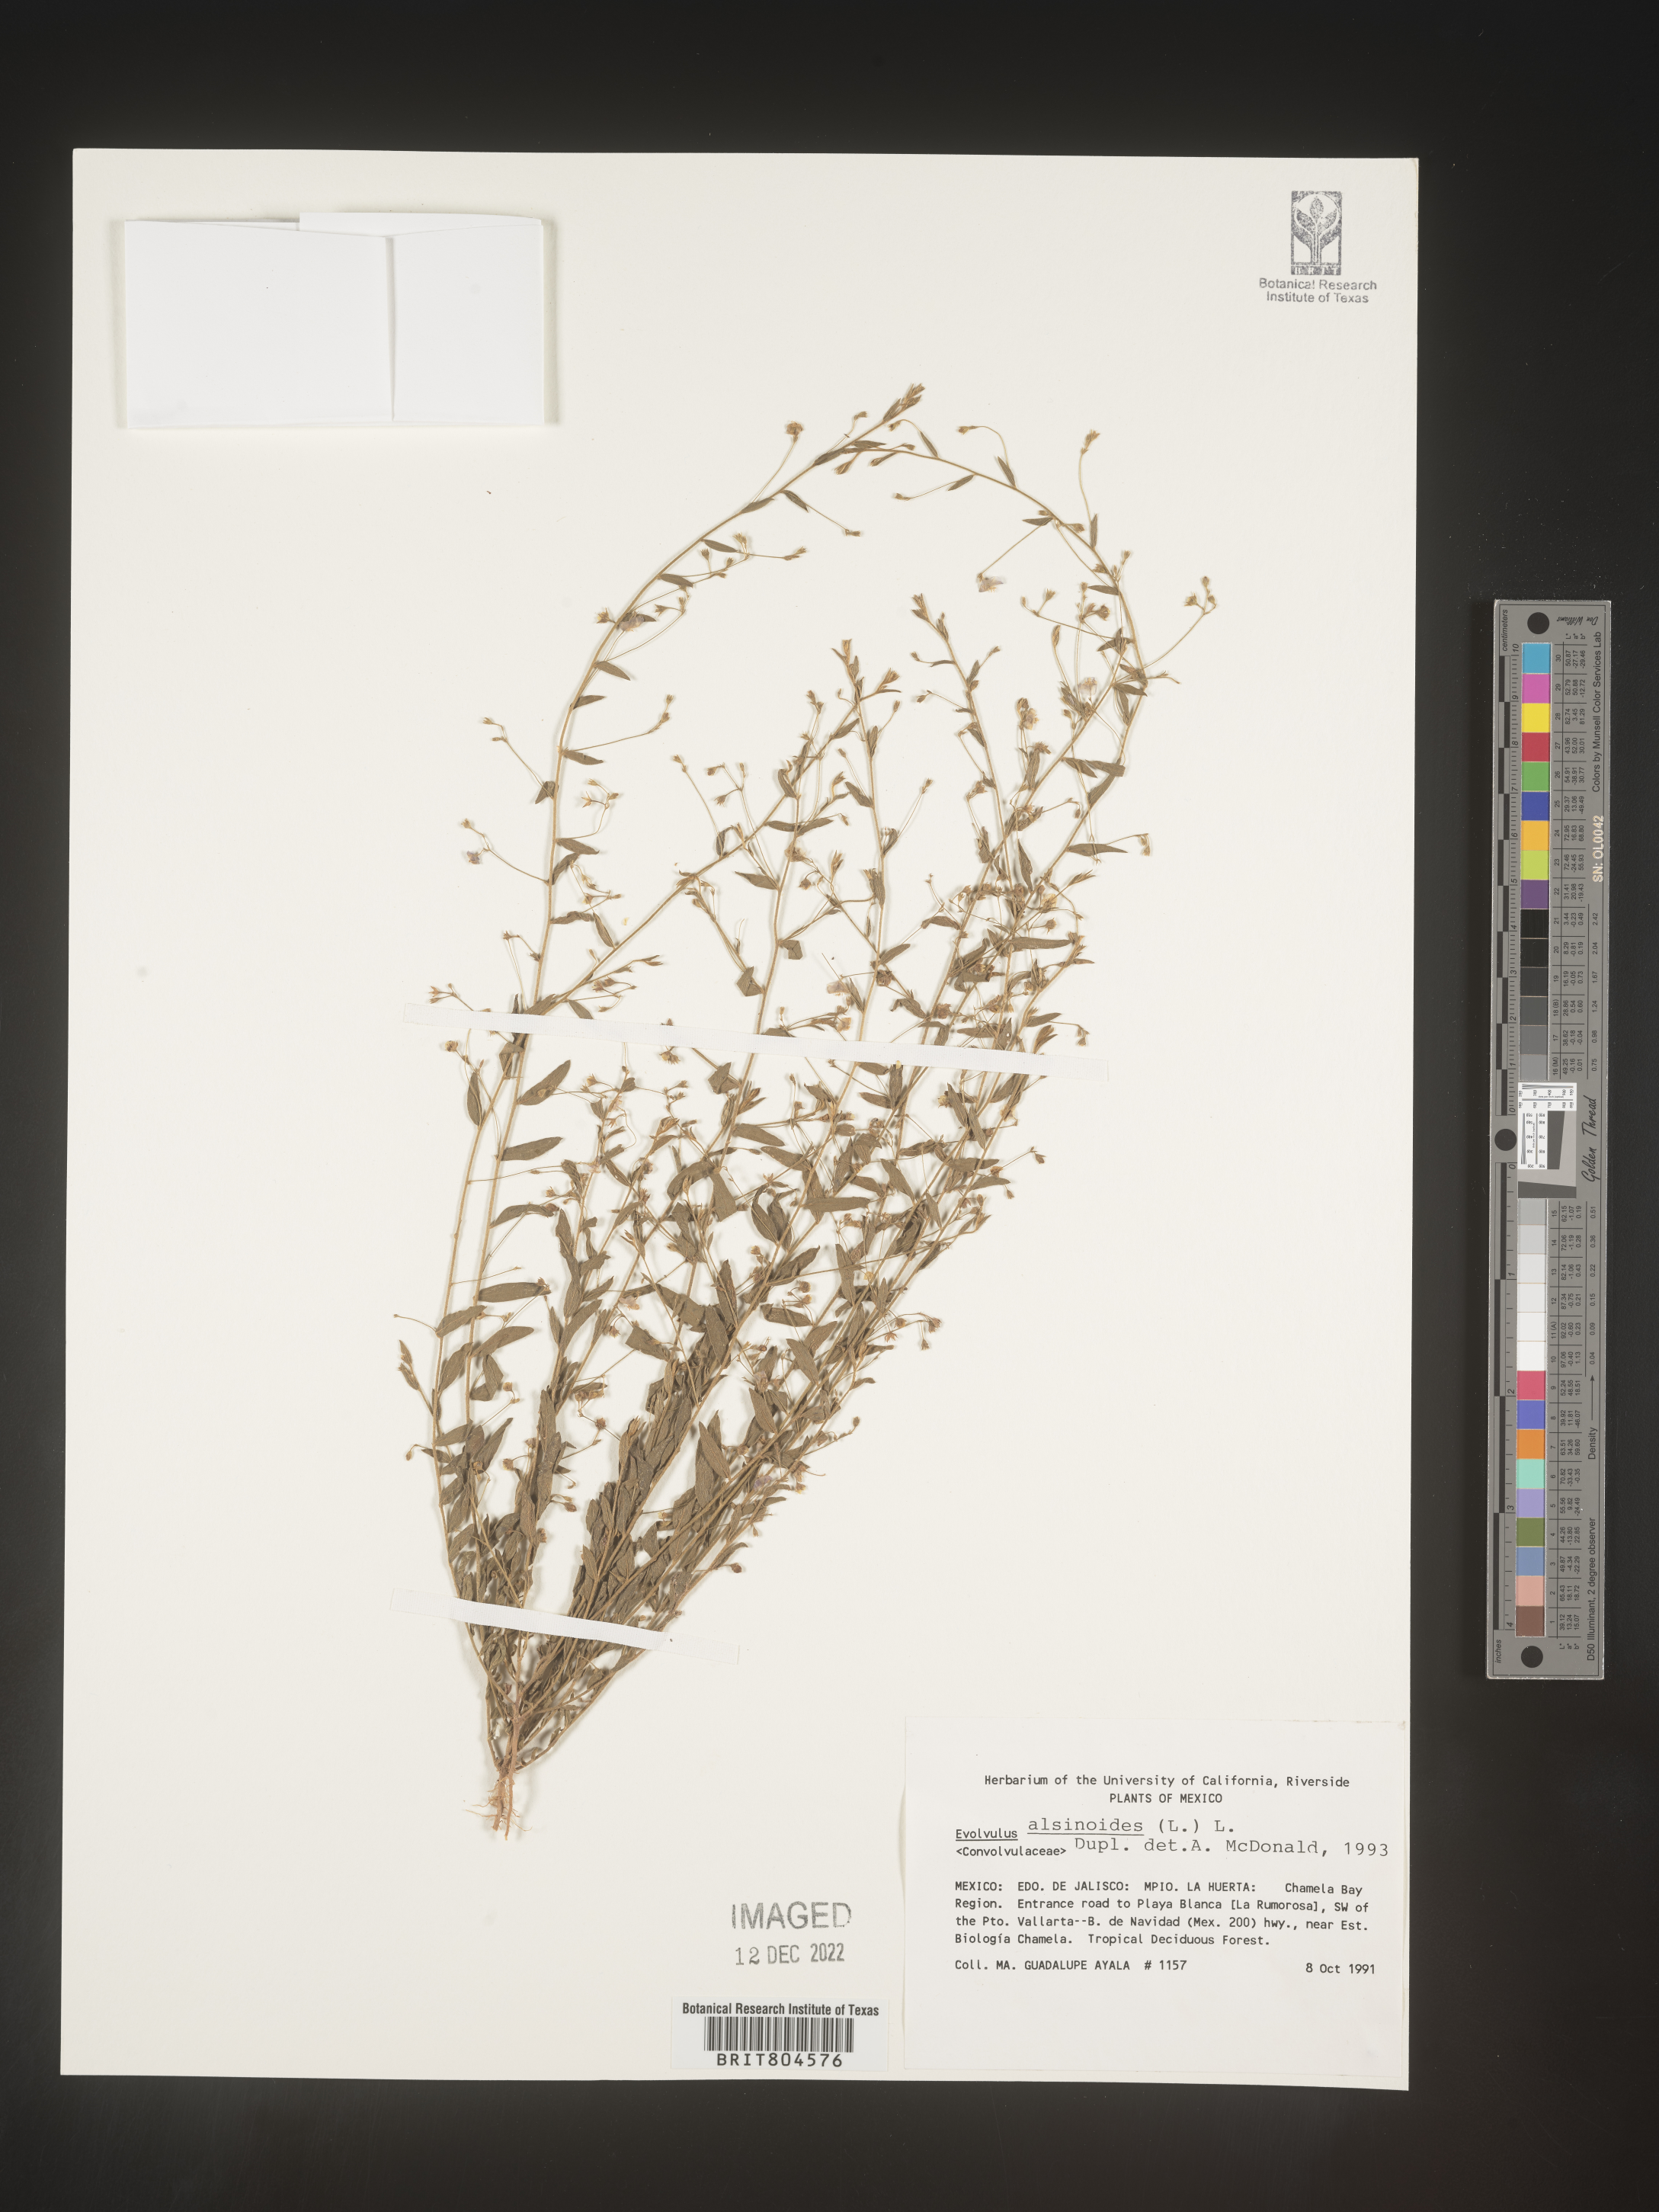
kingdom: Plantae
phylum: Tracheophyta
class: Magnoliopsida
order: Solanales
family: Convolvulaceae
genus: Evolvulus
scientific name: Evolvulus
